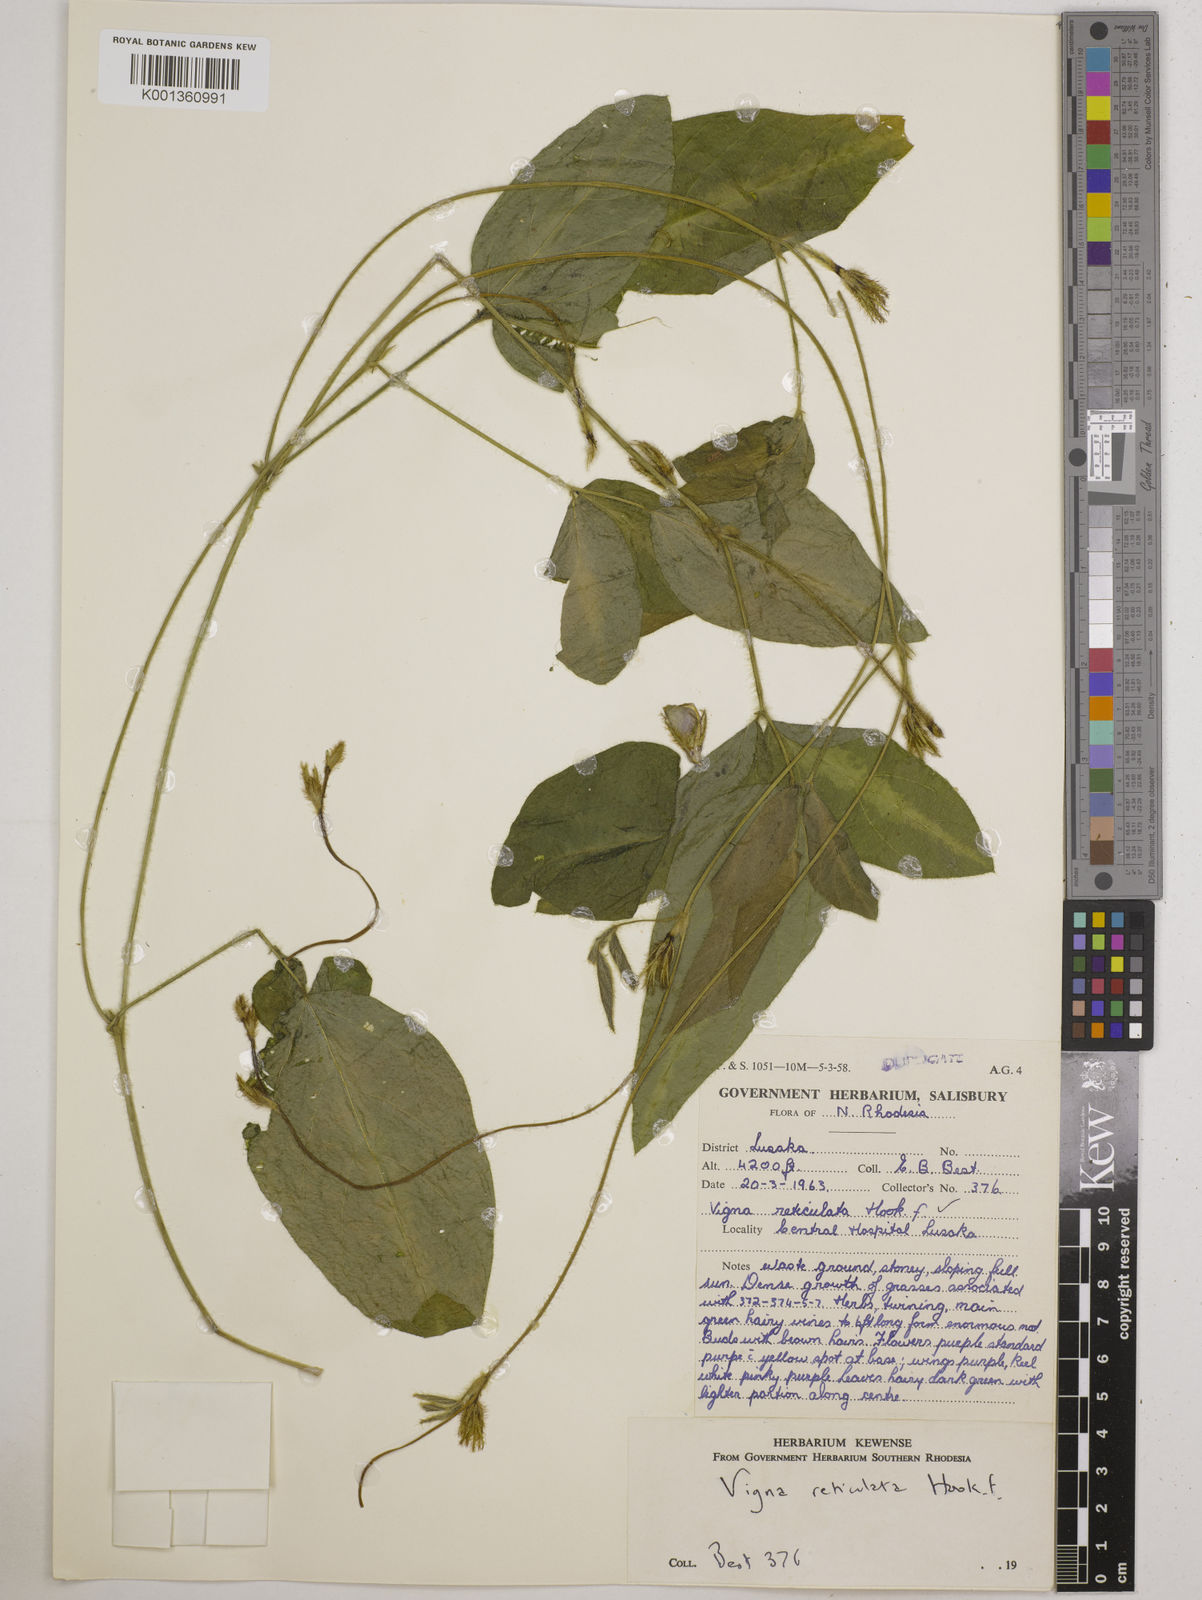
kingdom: Plantae
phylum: Tracheophyta
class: Magnoliopsida
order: Fabales
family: Fabaceae
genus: Vigna
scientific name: Vigna reticulata
